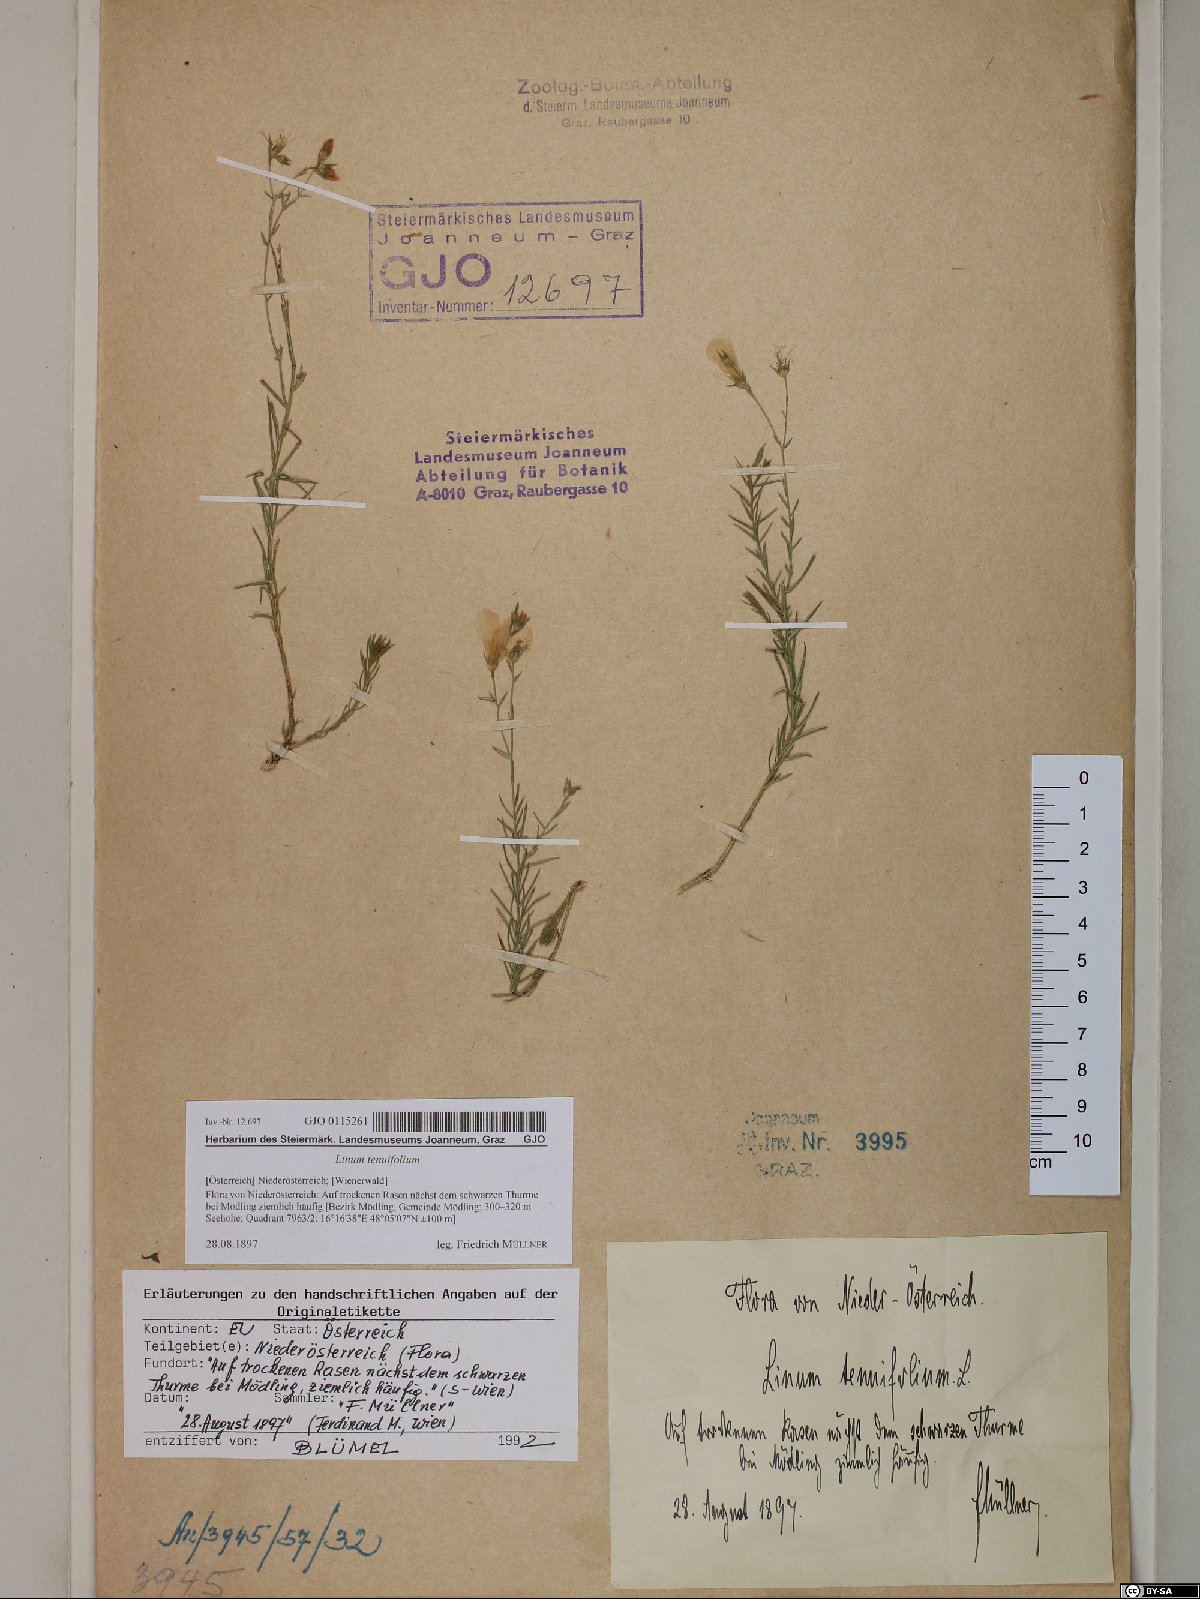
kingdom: Plantae
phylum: Tracheophyta
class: Magnoliopsida
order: Malpighiales
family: Linaceae
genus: Linum
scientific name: Linum tenuifolium
